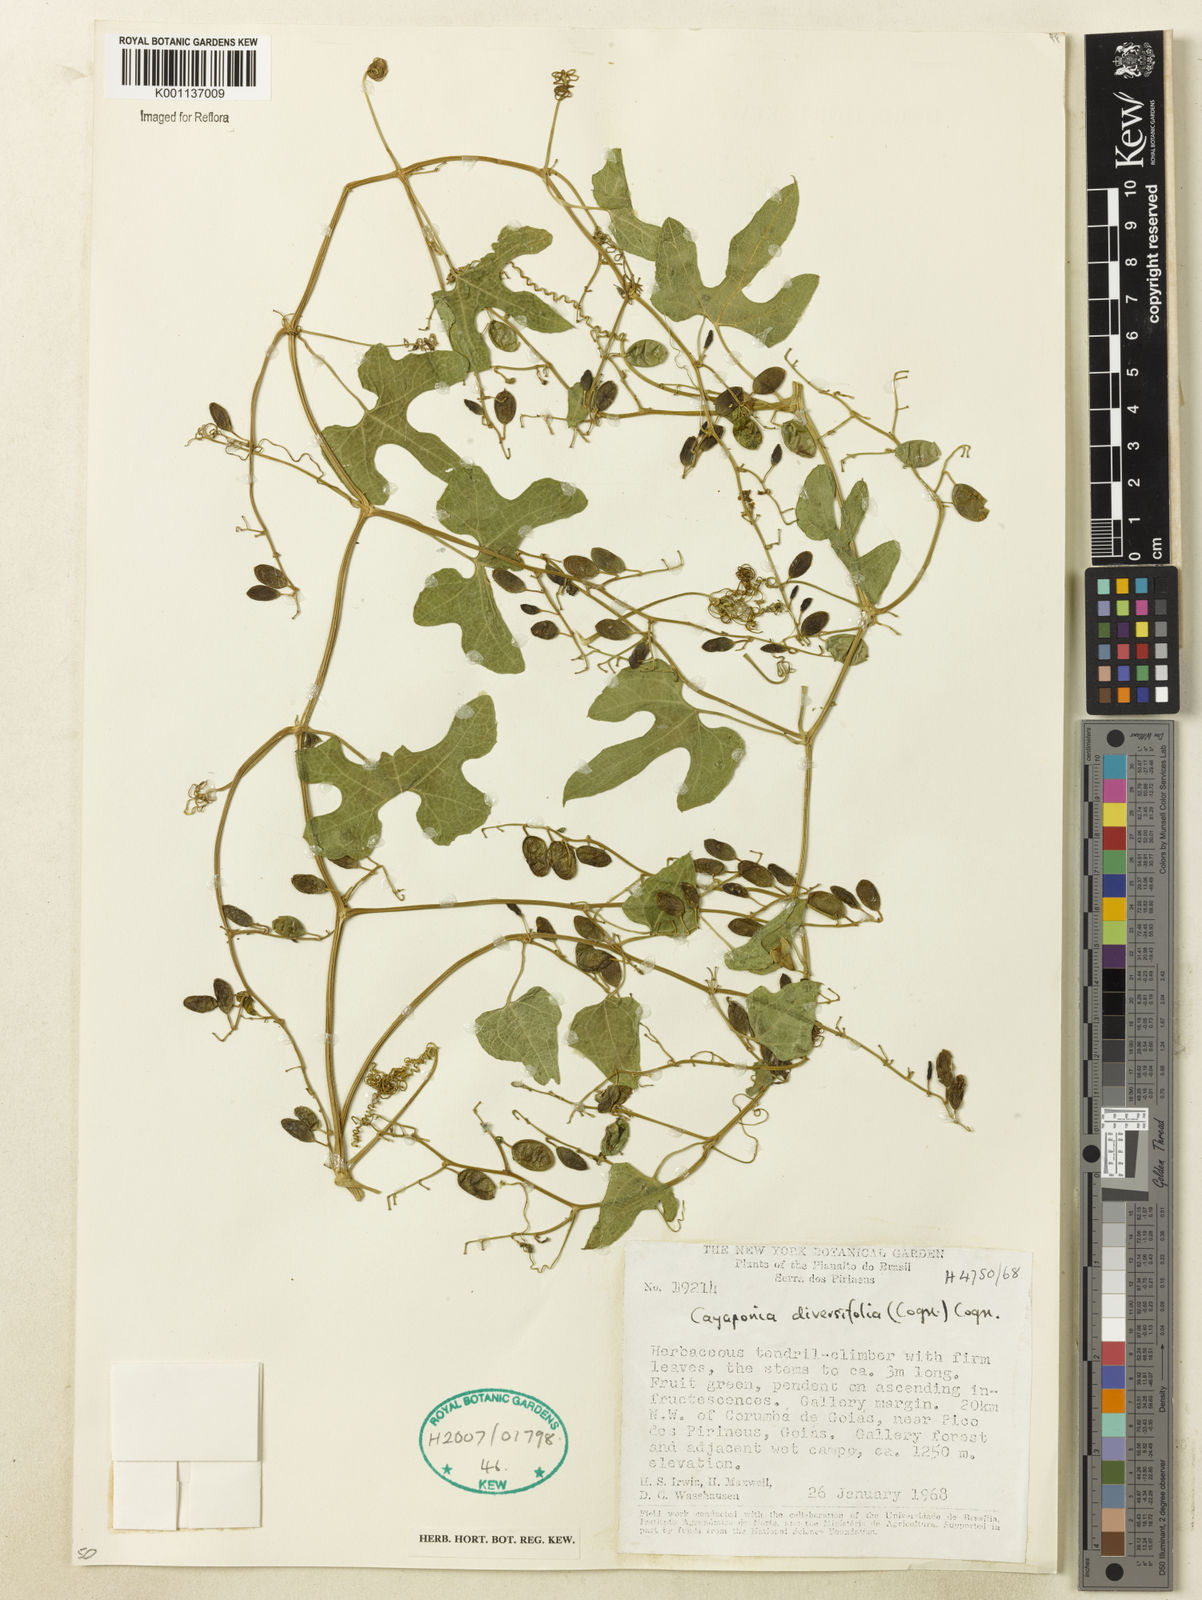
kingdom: Plantae
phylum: Tracheophyta
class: Magnoliopsida
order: Cucurbitales
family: Cucurbitaceae
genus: Cayaponia
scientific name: Cayaponia diversifolia
